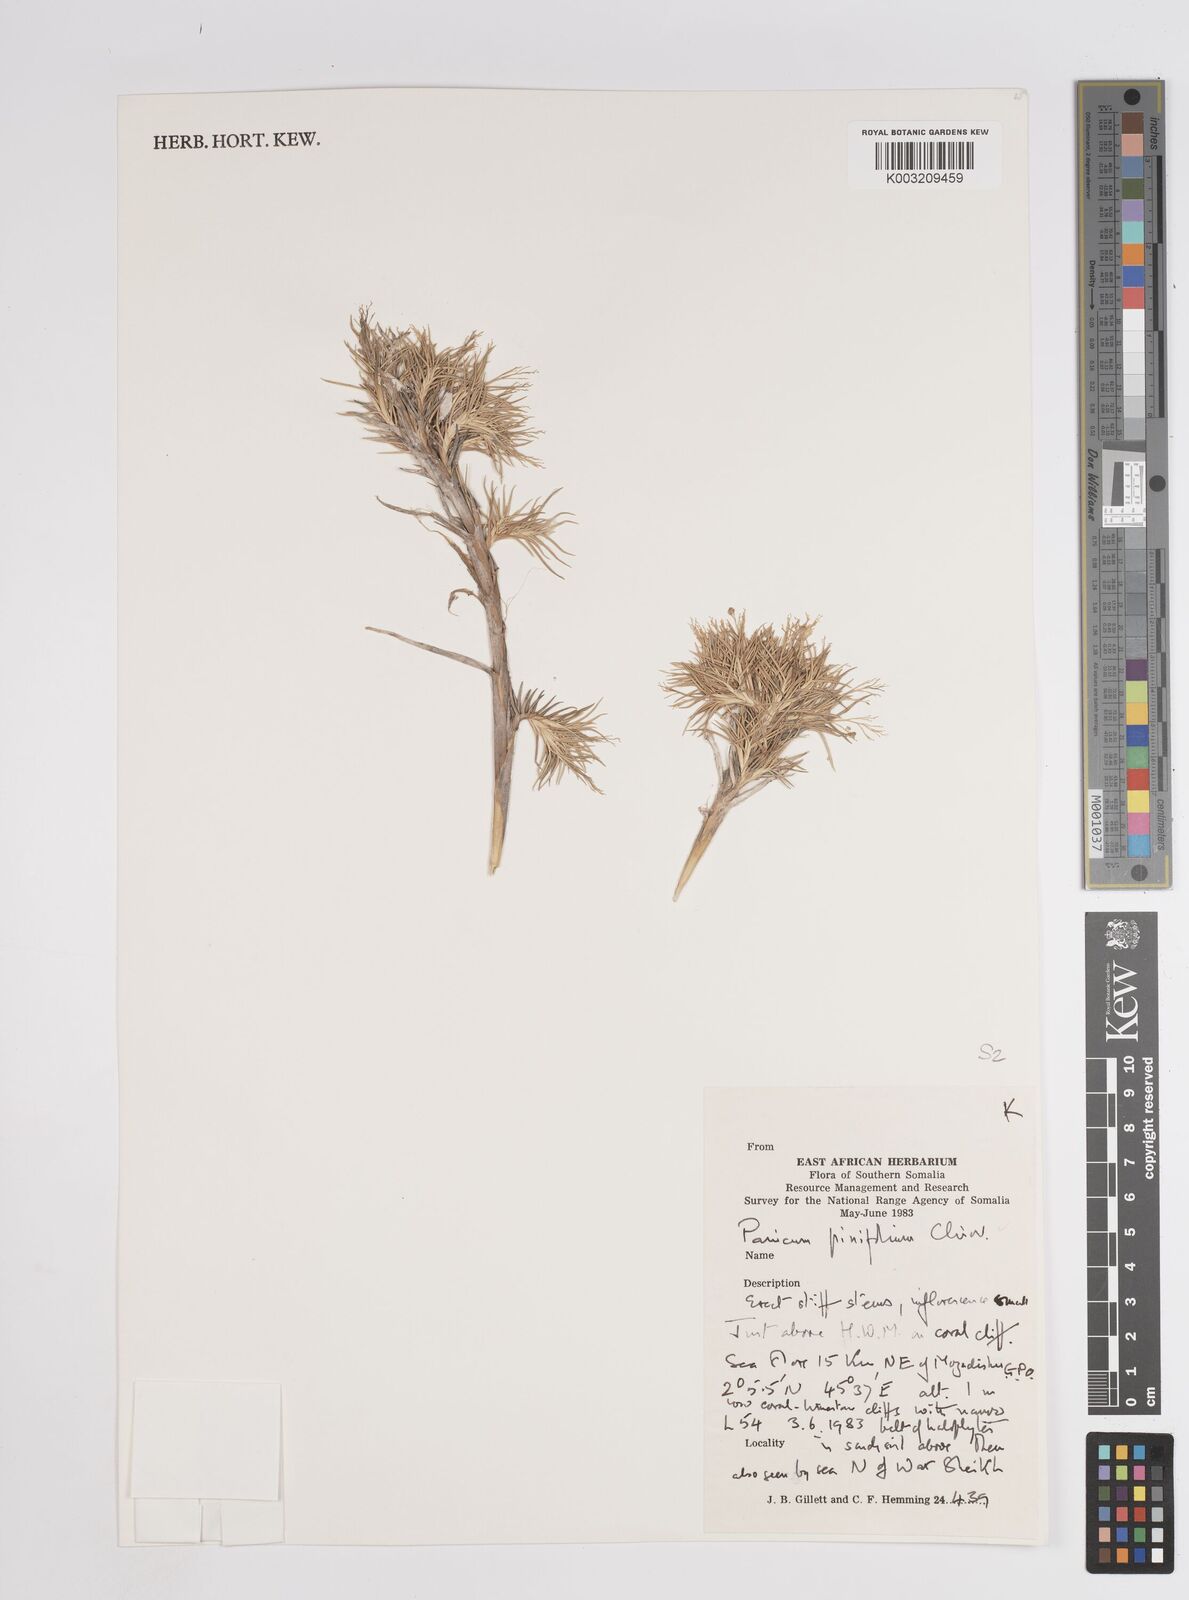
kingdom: Plantae
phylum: Tracheophyta
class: Liliopsida
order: Poales
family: Poaceae
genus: Panicum
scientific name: Panicum pinifolium
